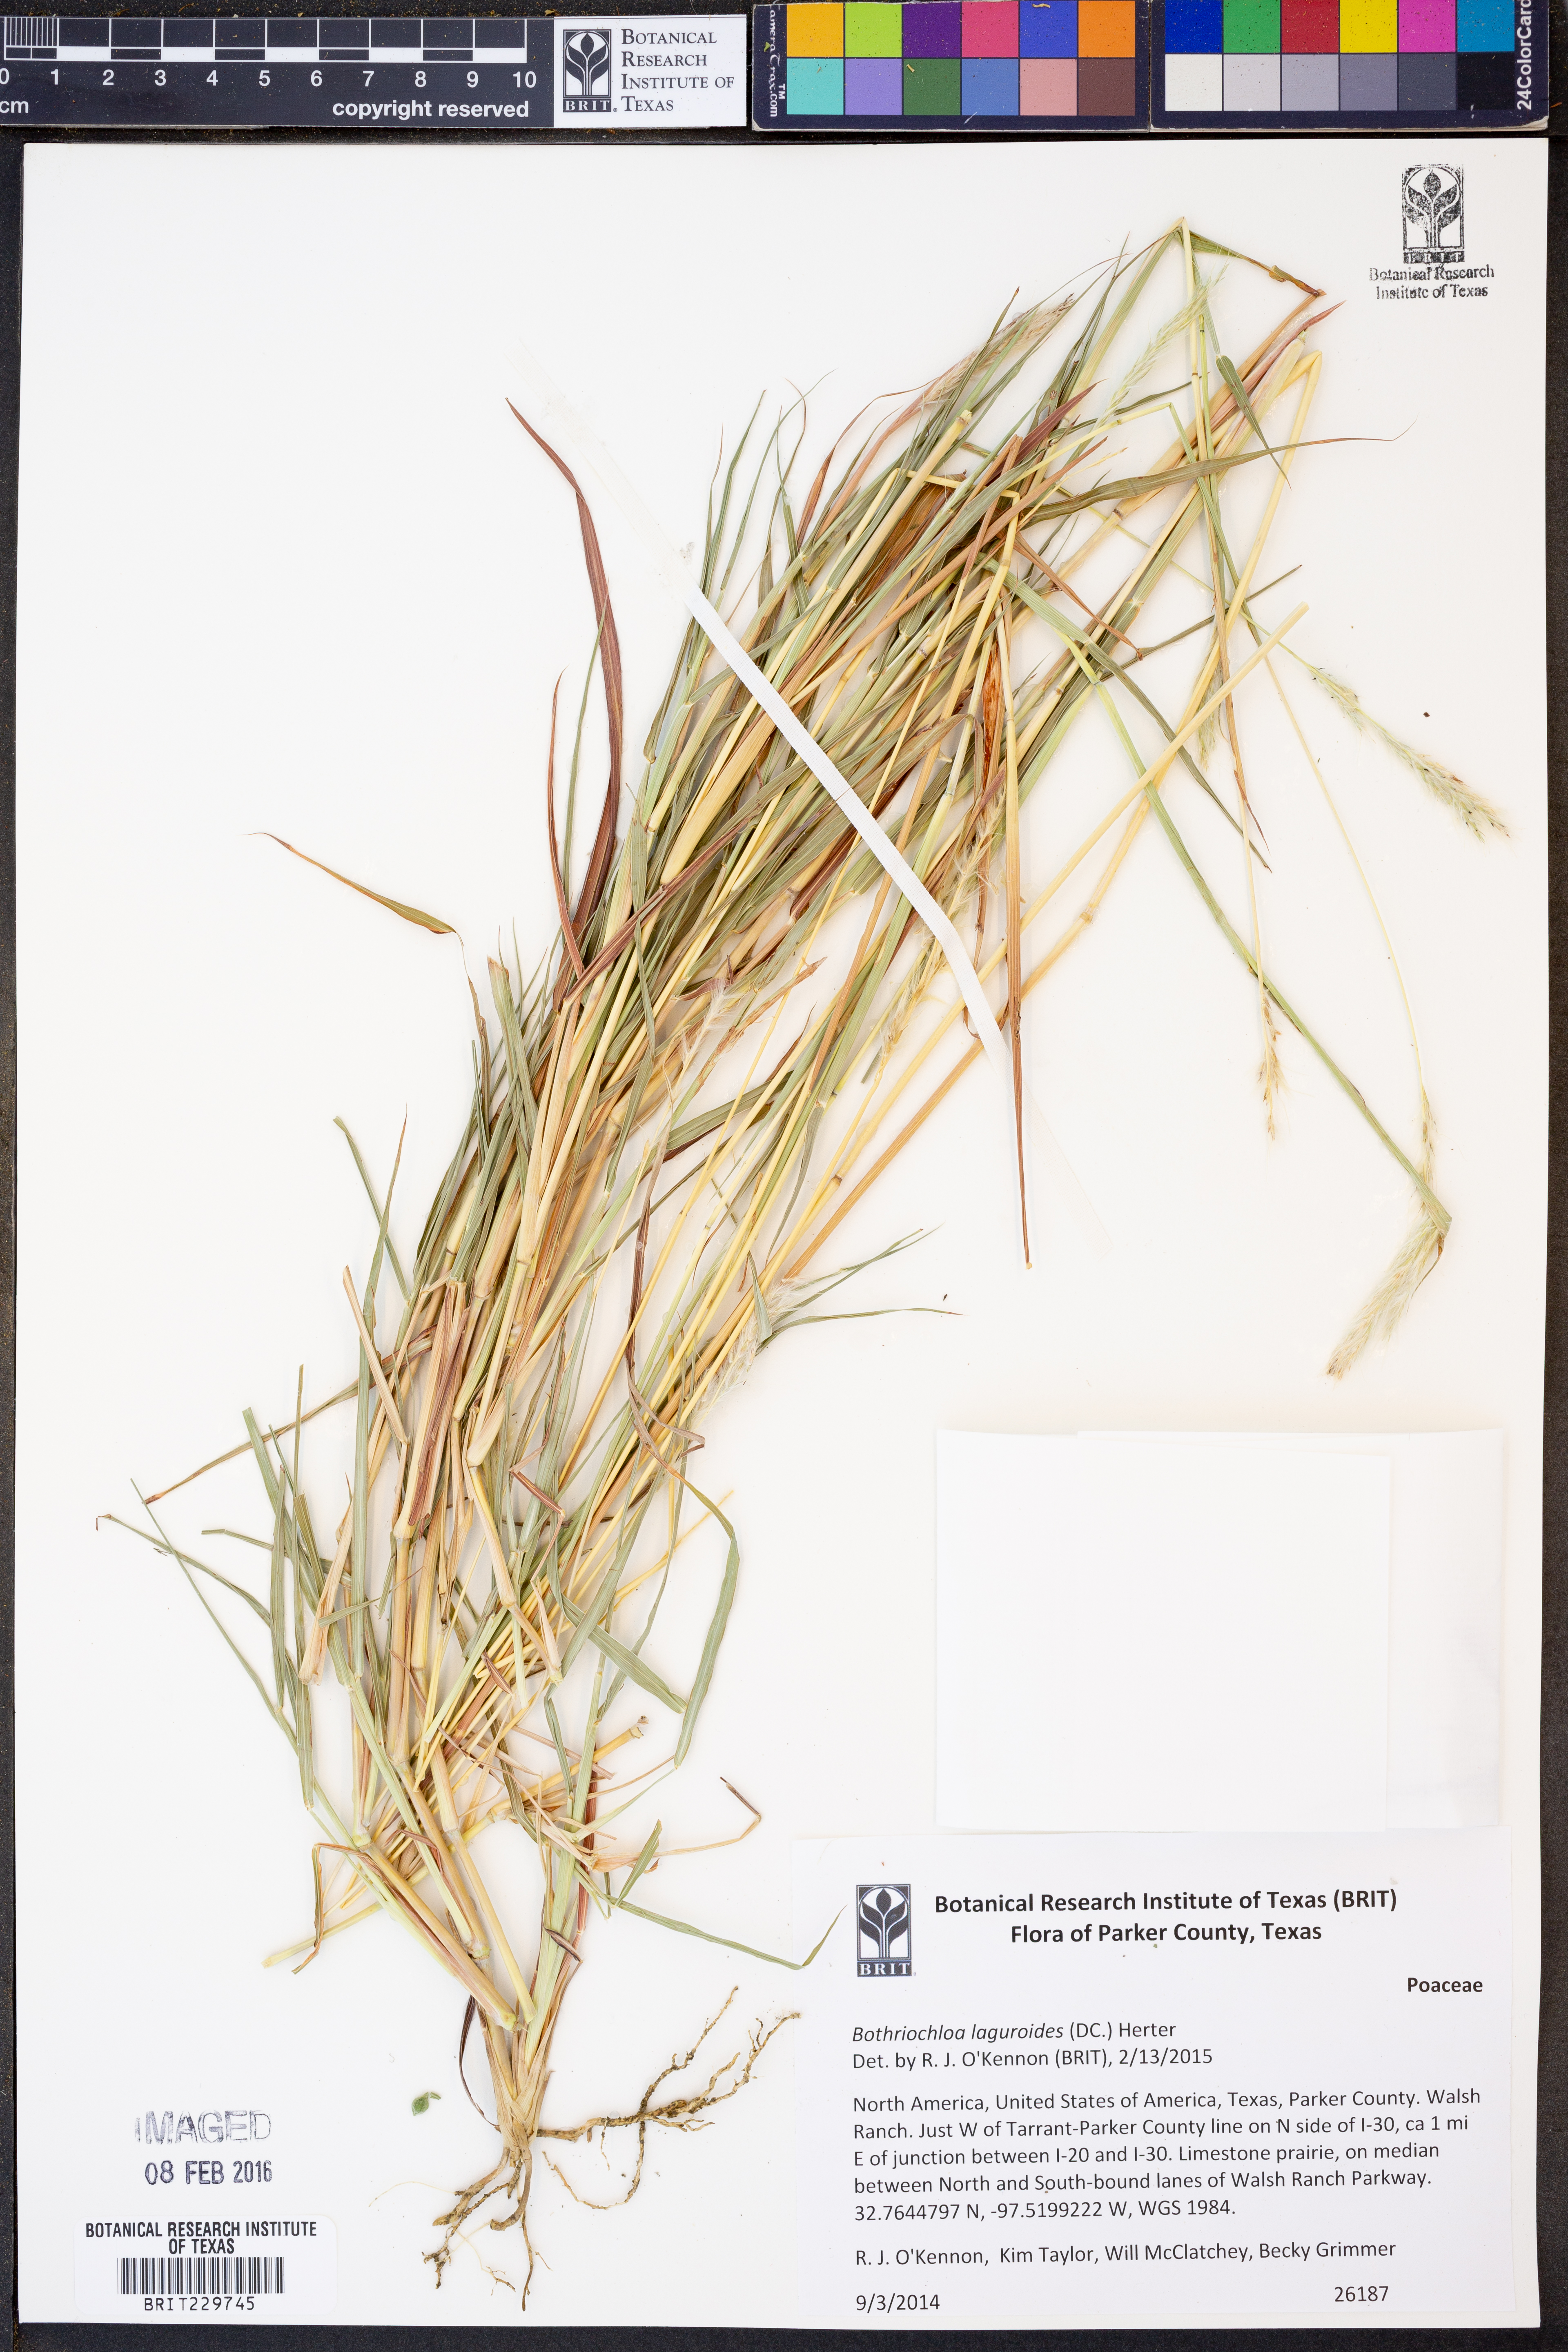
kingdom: Plantae
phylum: Tracheophyta
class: Liliopsida
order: Poales
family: Poaceae
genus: Bothriochloa
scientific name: Bothriochloa laguroides
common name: Silver bluestem
